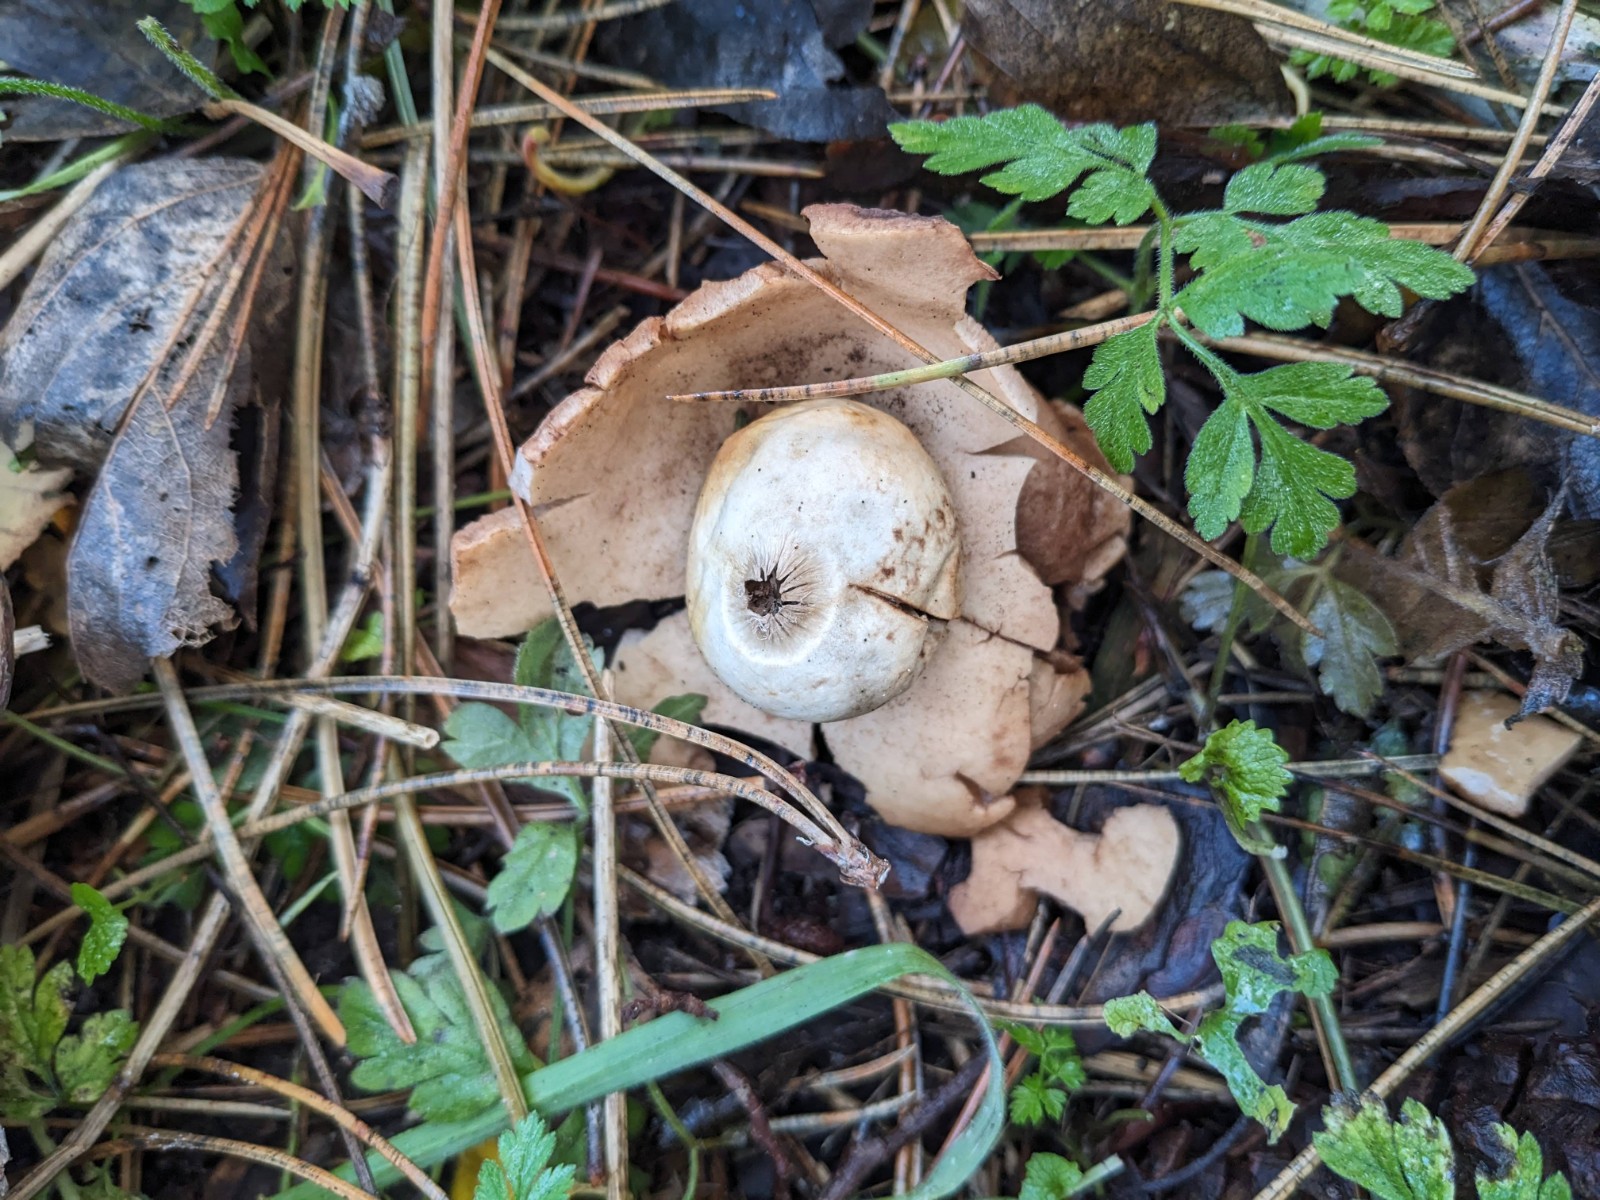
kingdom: Fungi
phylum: Basidiomycota
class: Agaricomycetes
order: Geastrales
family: Geastraceae
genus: Geastrum
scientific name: Geastrum michelianum
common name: kødet stjernebold
